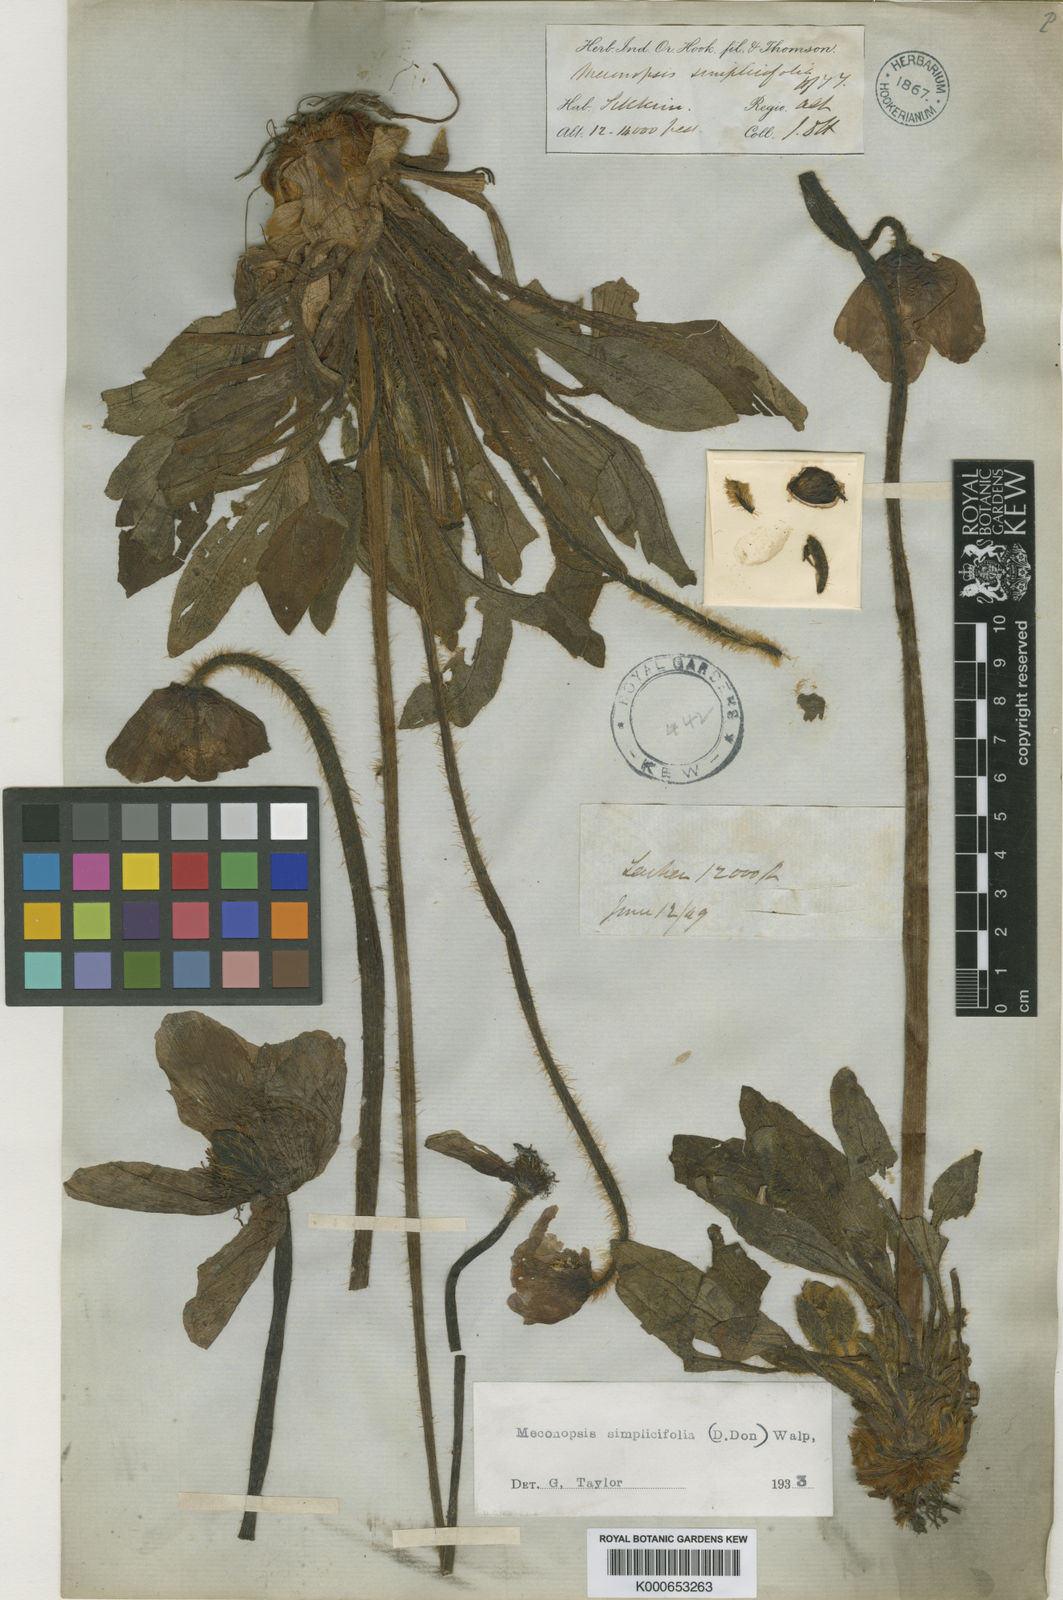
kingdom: Plantae
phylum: Tracheophyta
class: Magnoliopsida
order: Ranunculales
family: Papaveraceae
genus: Meconopsis
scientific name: Meconopsis
